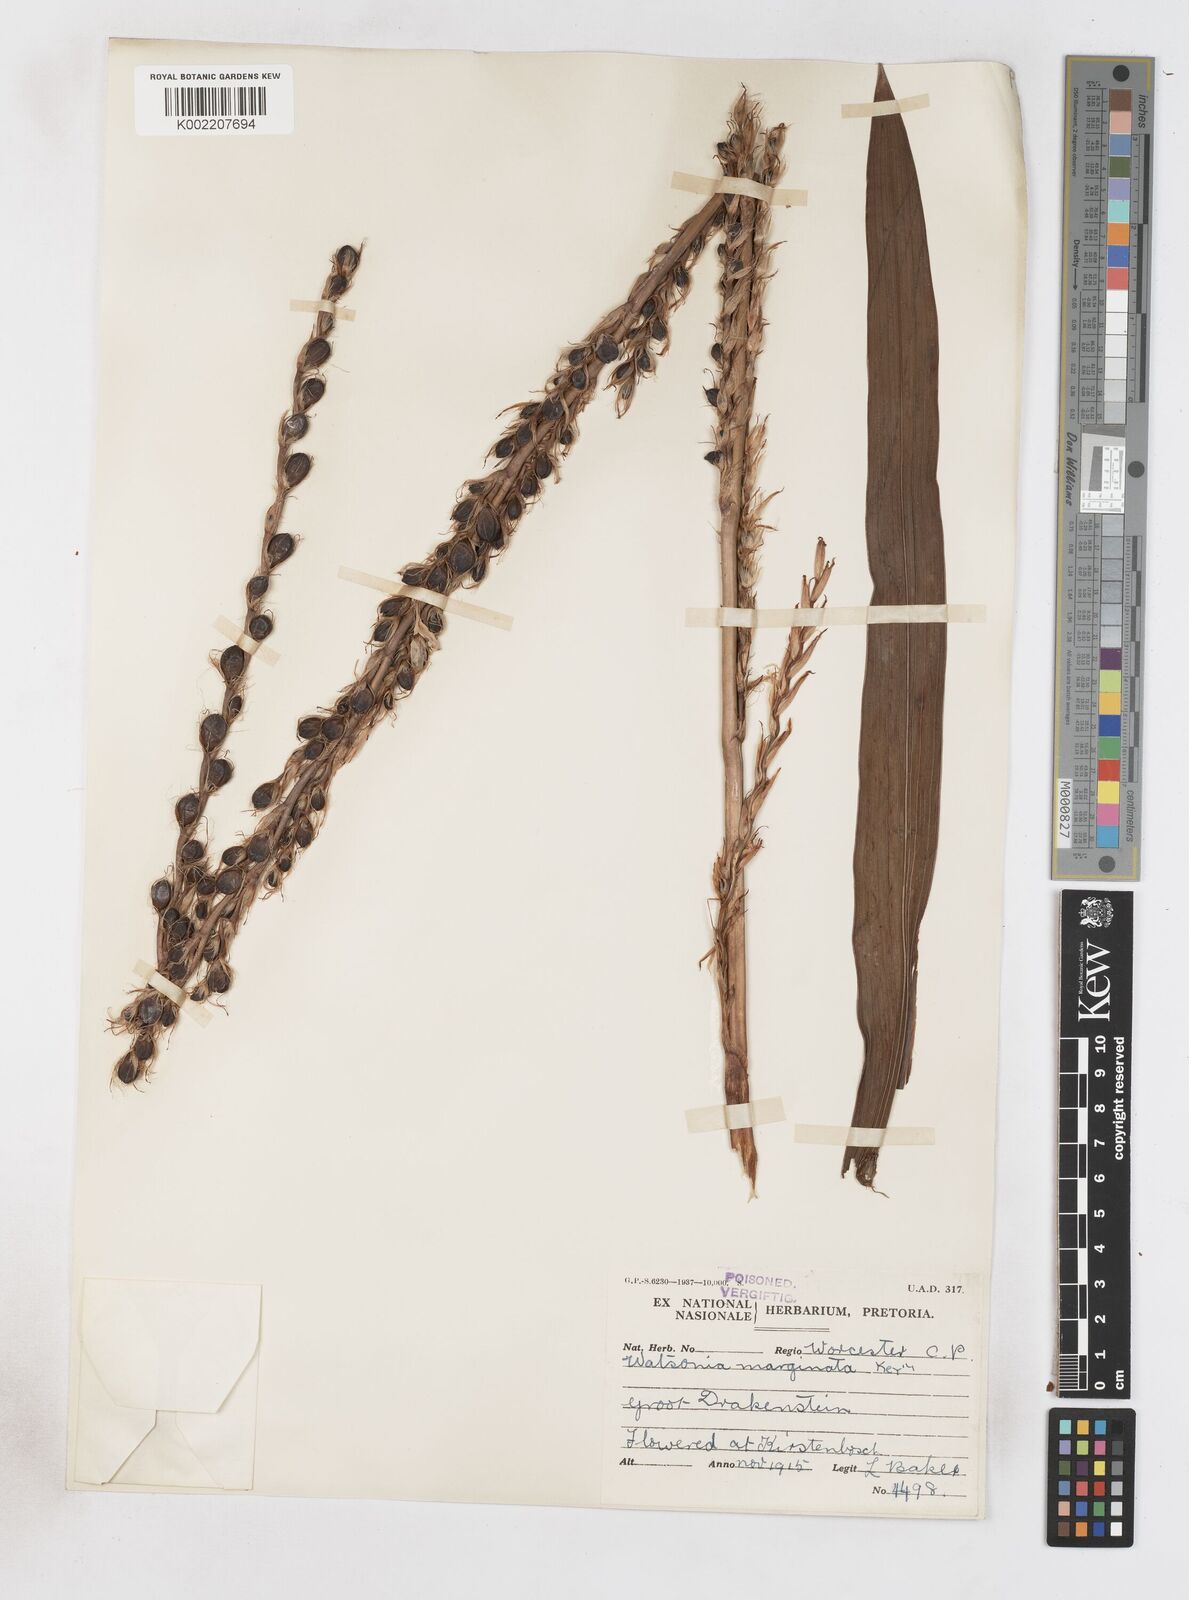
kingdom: Plantae
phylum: Tracheophyta
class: Liliopsida
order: Asparagales
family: Iridaceae
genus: Watsonia
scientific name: Watsonia marginata
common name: Fragrant bugle-lily
